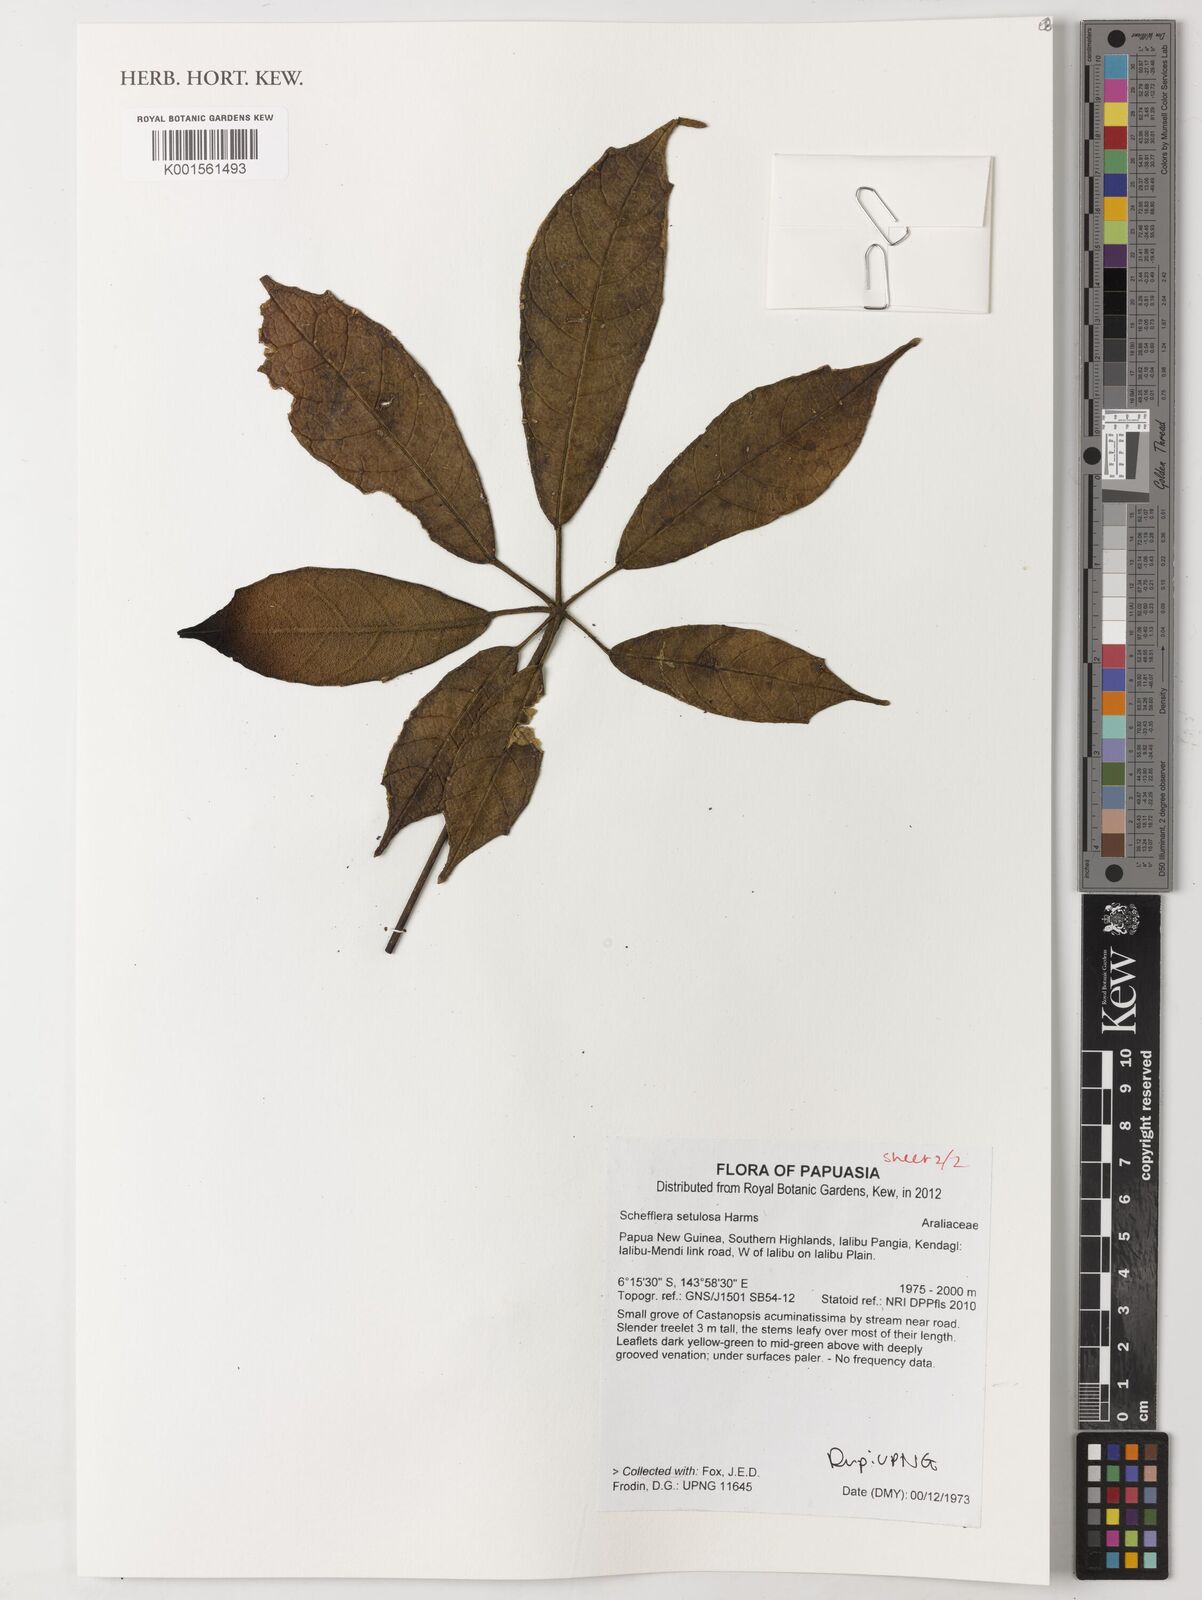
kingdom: Plantae
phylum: Tracheophyta
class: Magnoliopsida
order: Apiales
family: Araliaceae
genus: Heptapleurum
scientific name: Heptapleurum setulosum
